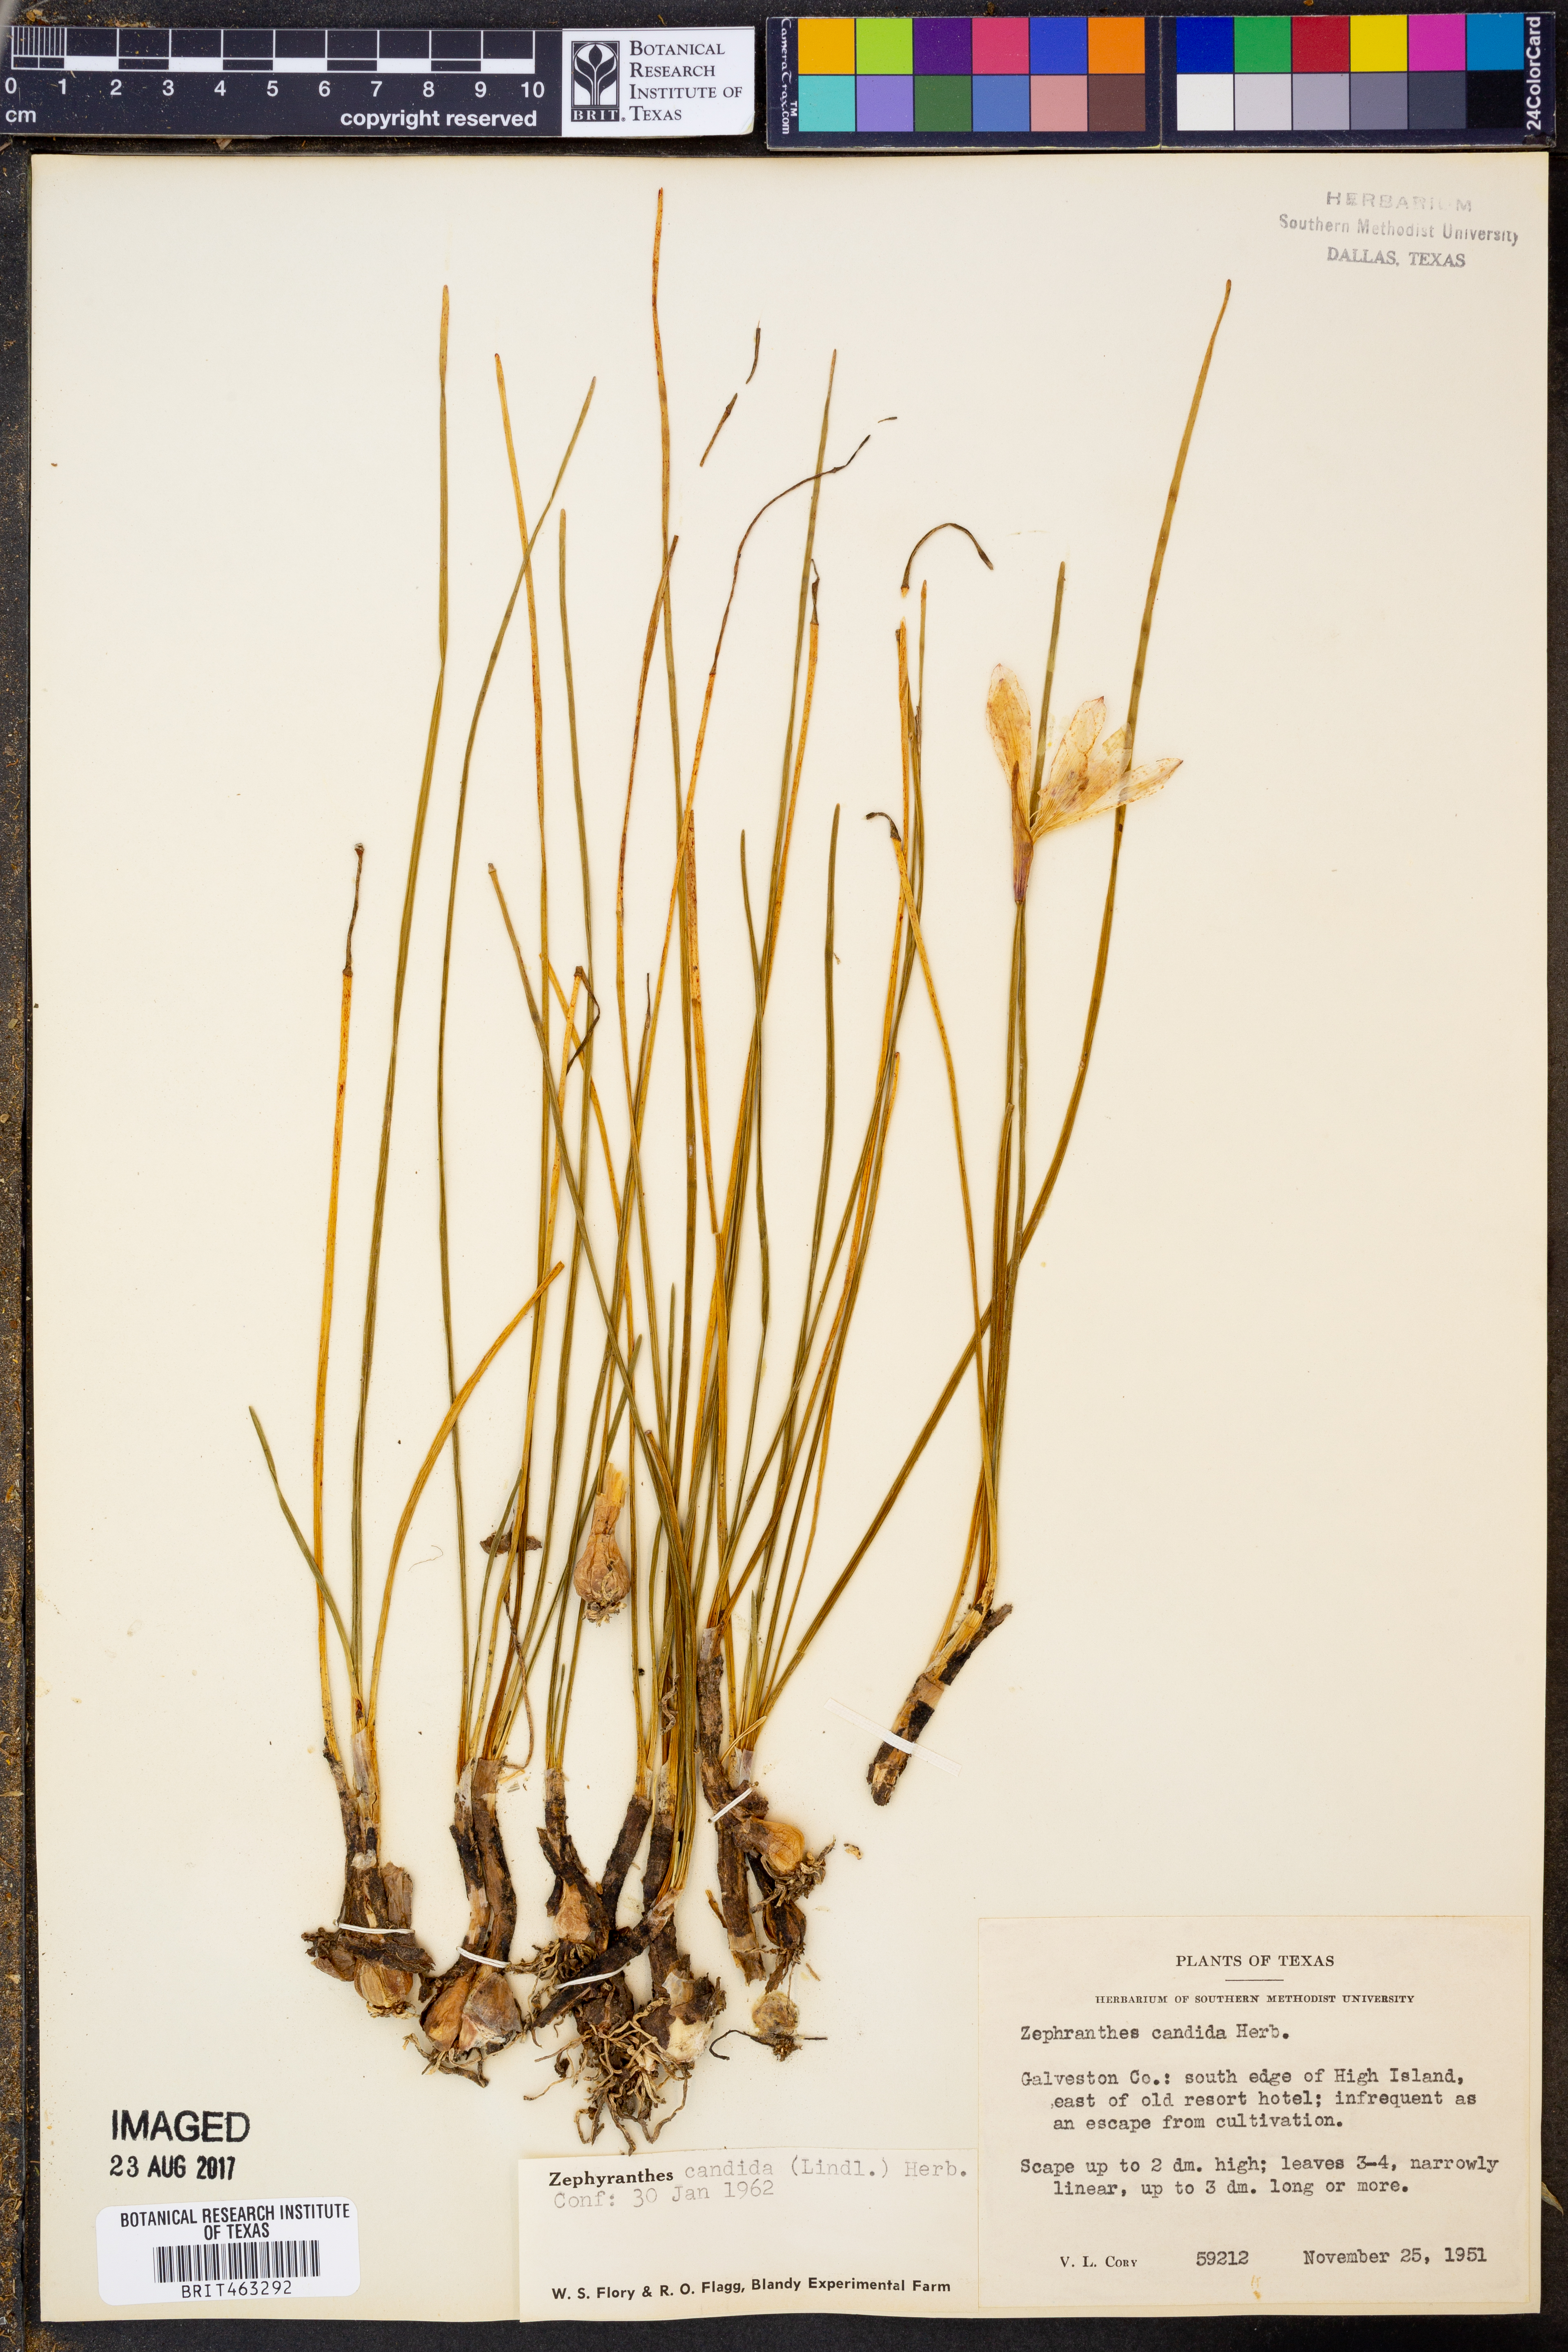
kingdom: Plantae
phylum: Tracheophyta
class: Liliopsida
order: Asparagales
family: Amaryllidaceae
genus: Zephyranthes
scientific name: Zephyranthes candida
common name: Autumn zephyrlily
